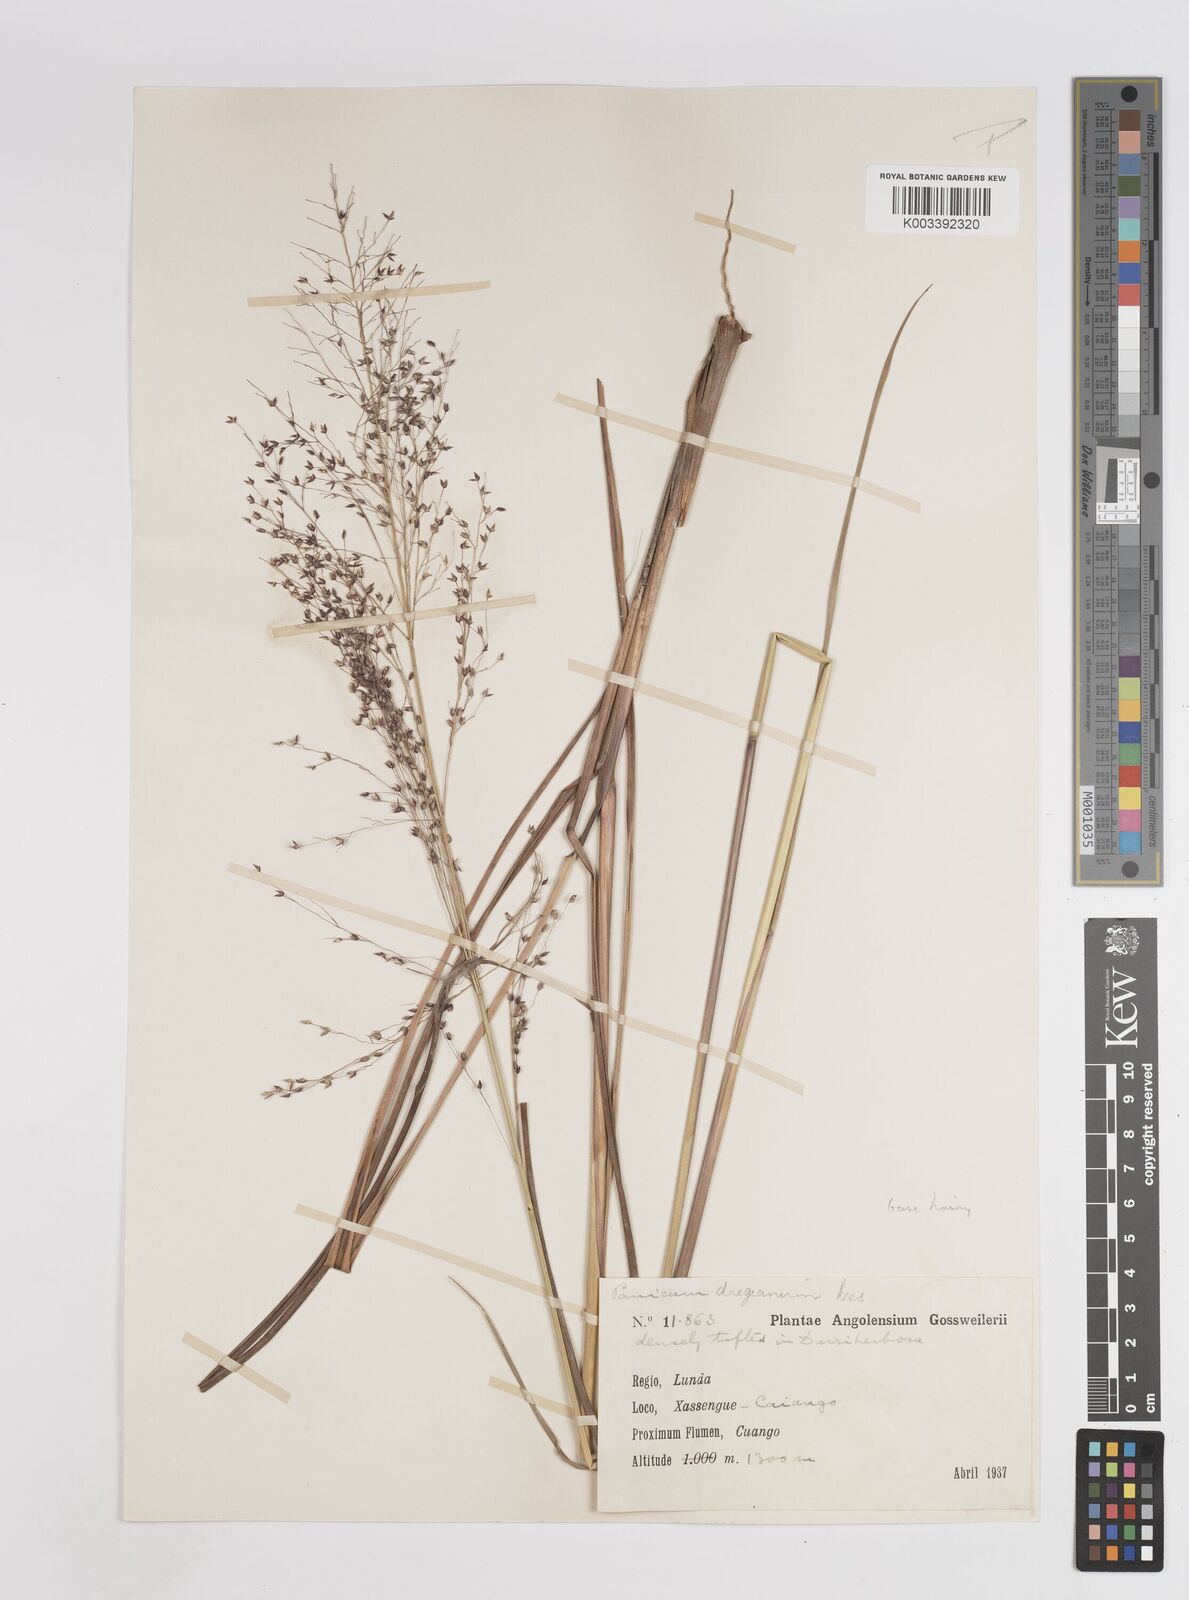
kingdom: Plantae
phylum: Tracheophyta
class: Liliopsida
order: Poales
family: Poaceae
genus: Panicum
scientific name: Panicum fluviicola
